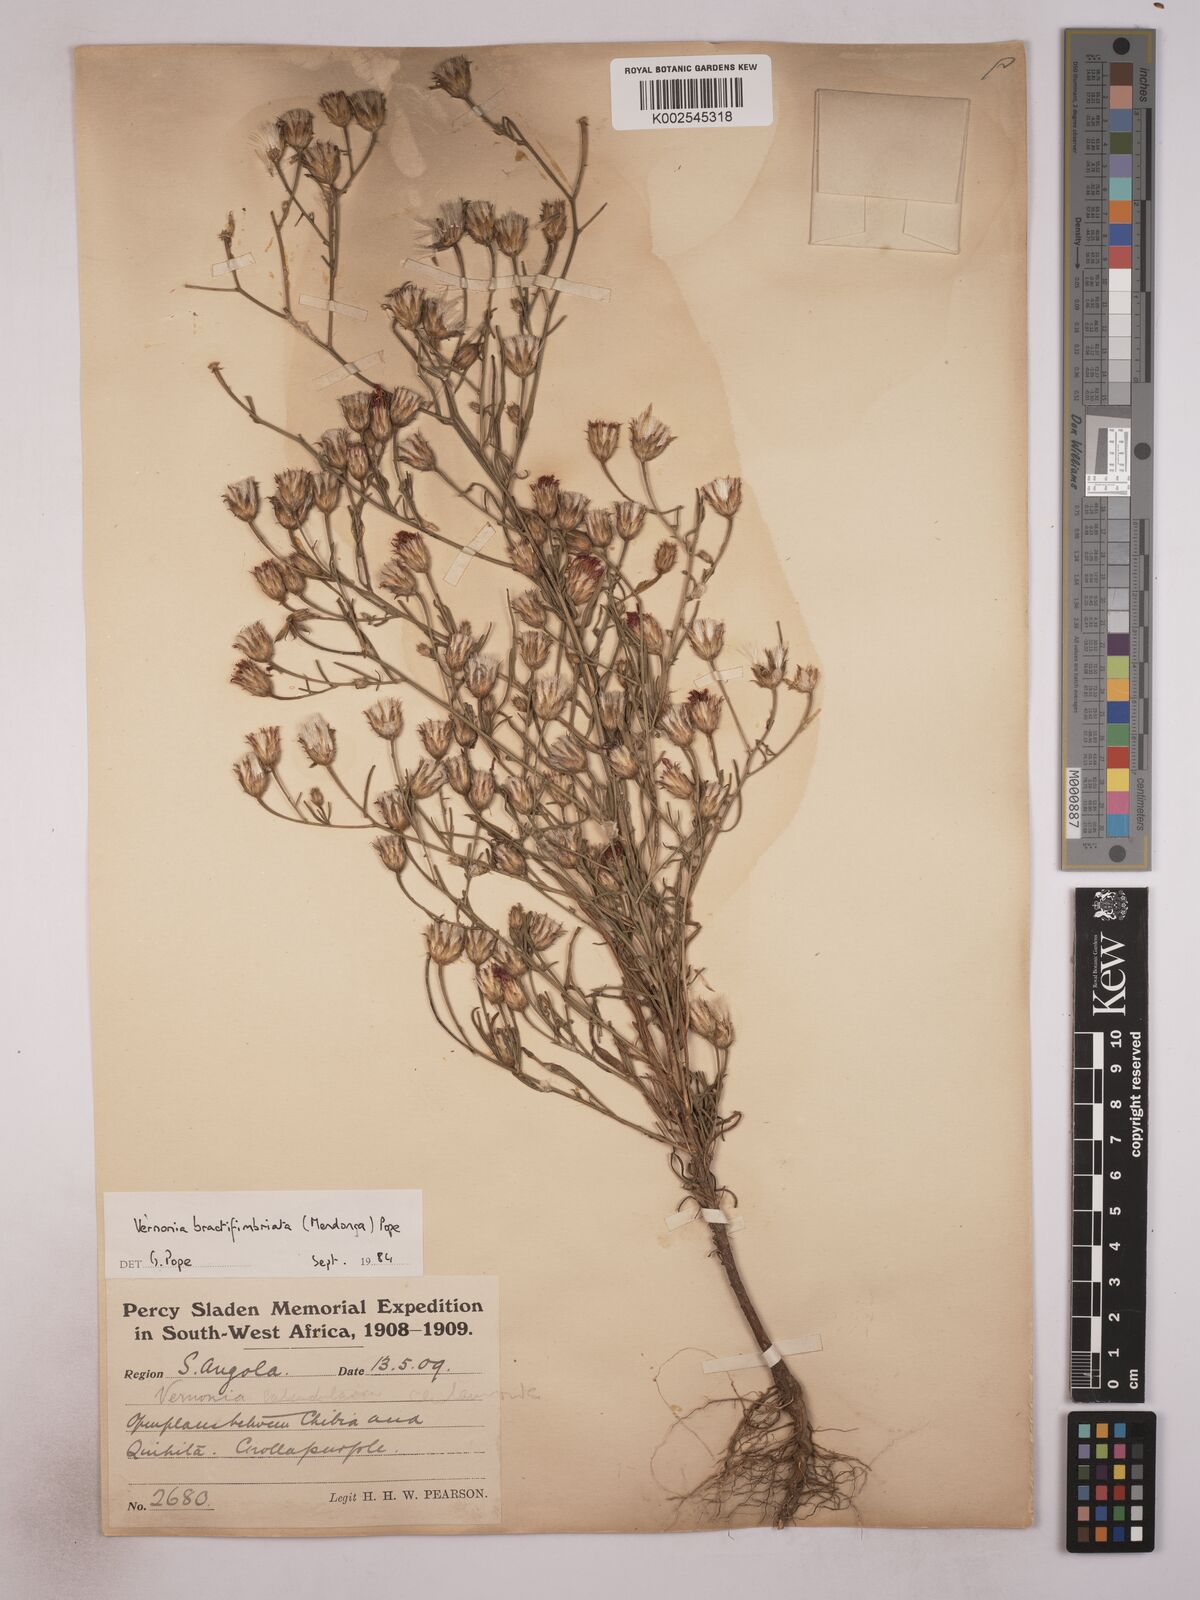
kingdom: Plantae
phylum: Tracheophyta
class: Magnoliopsida
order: Asterales
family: Asteraceae
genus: Crystallopollen
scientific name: Crystallopollen angustifolium
